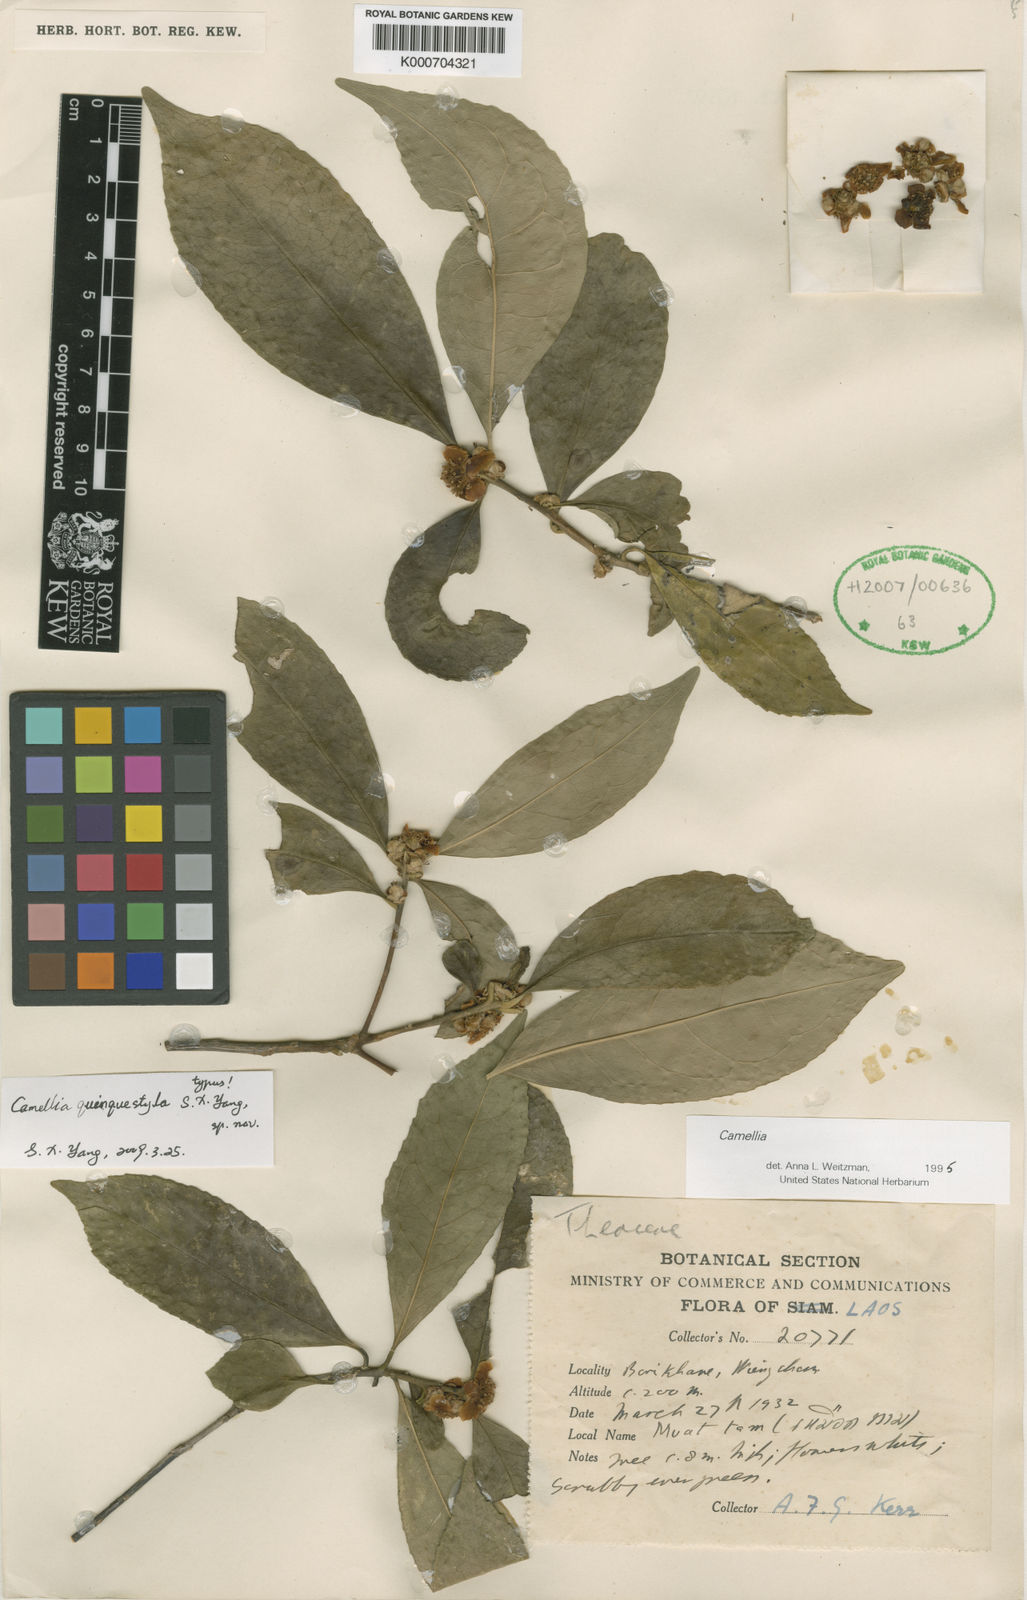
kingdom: Plantae
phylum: Tracheophyta
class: Magnoliopsida
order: Ericales
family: Theaceae
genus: Camellia
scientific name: Camellia
